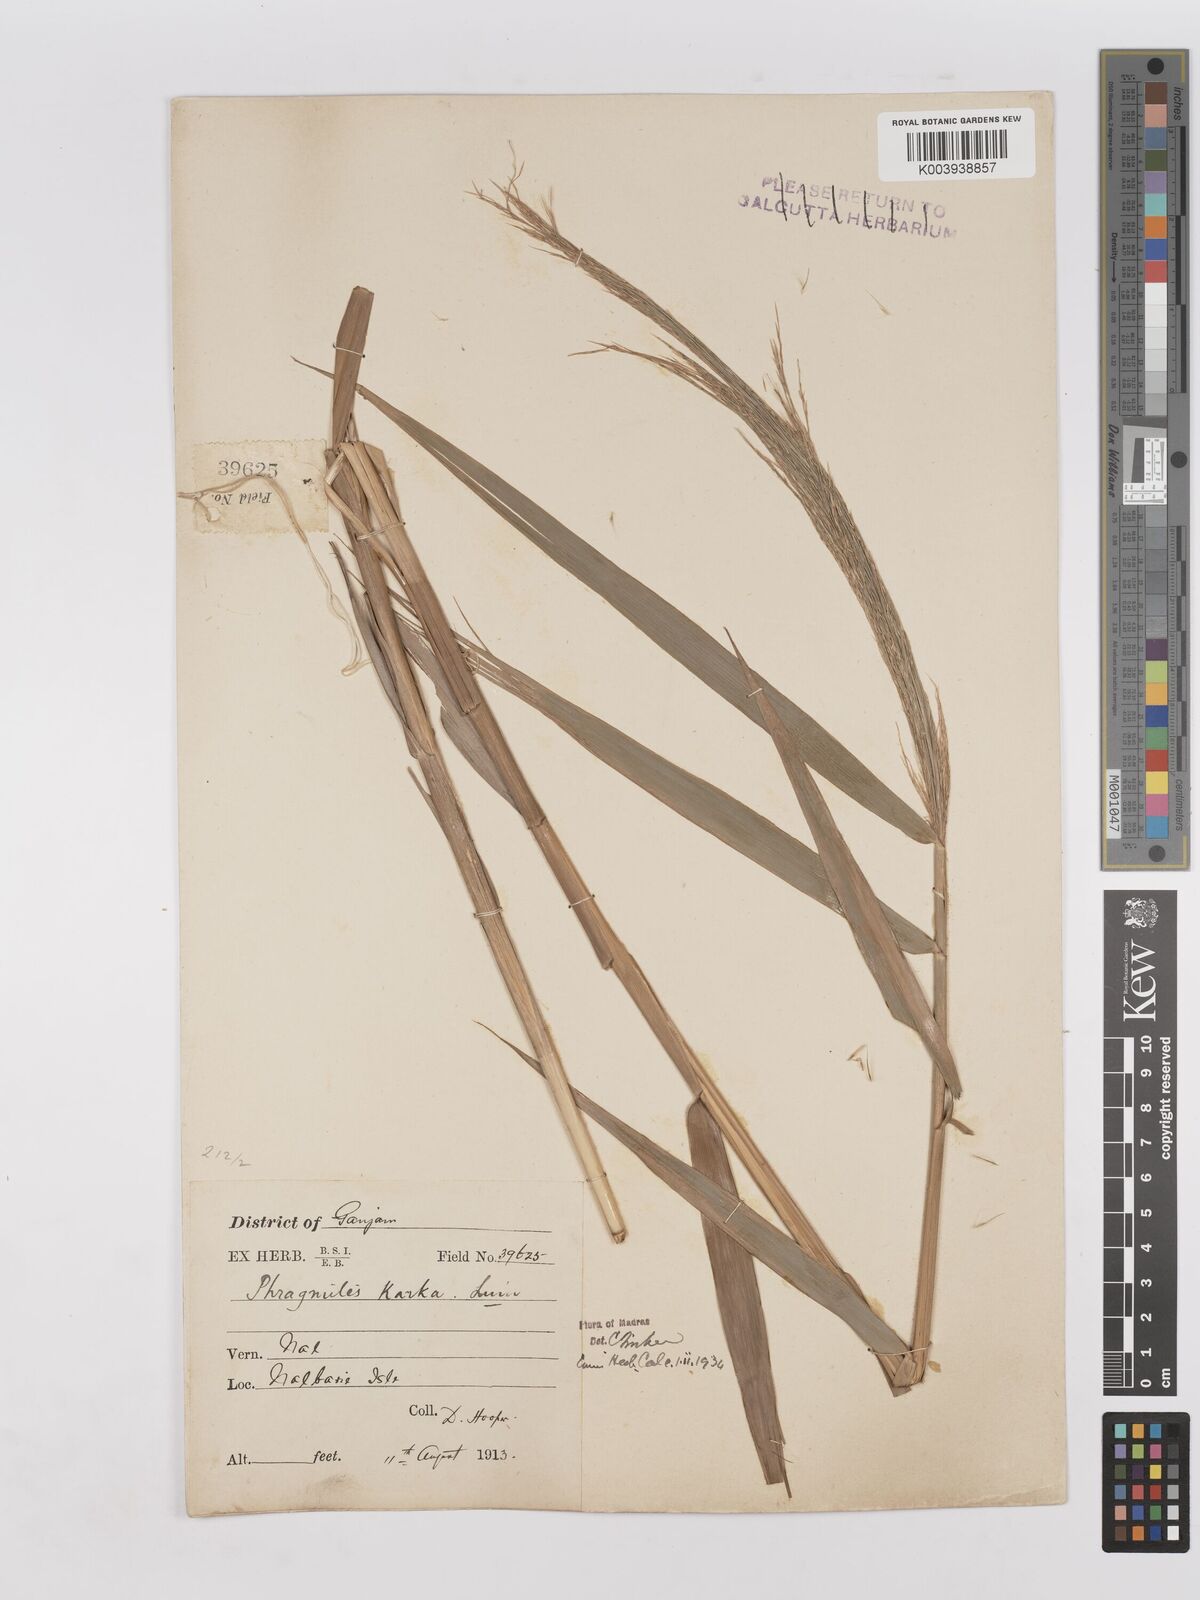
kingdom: Plantae
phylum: Tracheophyta
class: Liliopsida
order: Poales
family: Poaceae
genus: Phragmites
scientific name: Phragmites karka
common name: Tropical reed
